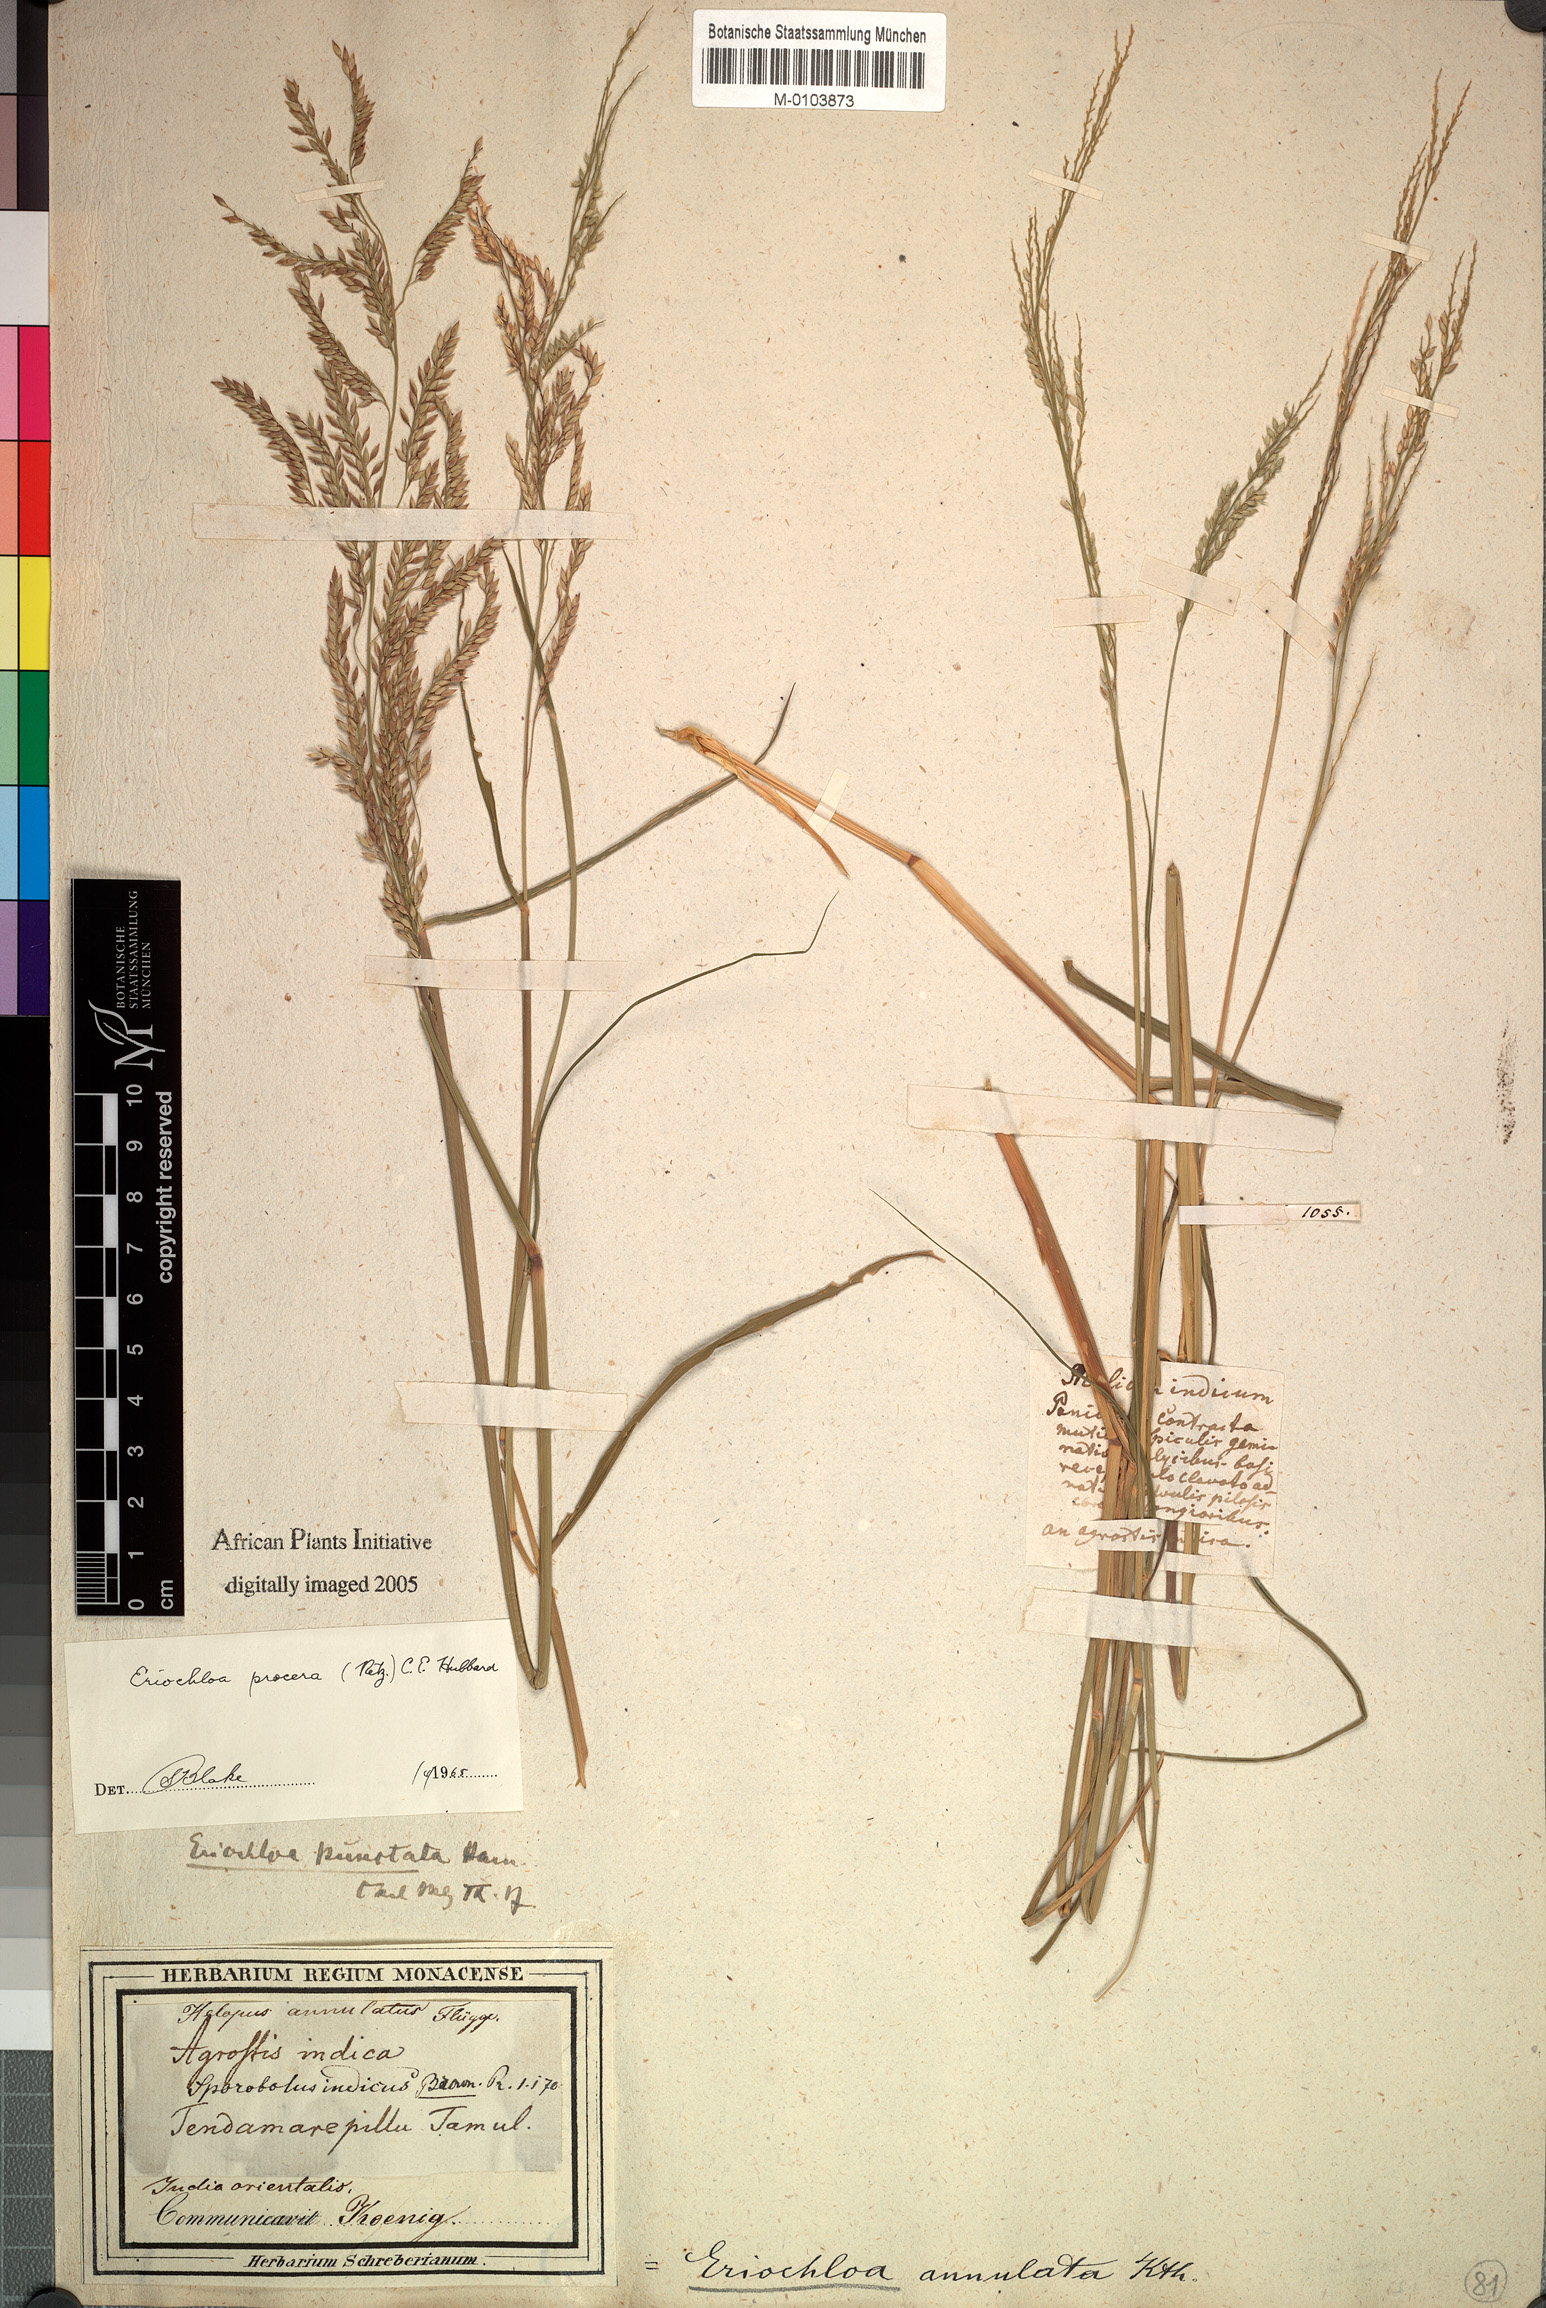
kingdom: Plantae
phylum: Tracheophyta
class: Liliopsida
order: Poales
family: Poaceae
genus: Eriochloa
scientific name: Eriochloa procera
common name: Spring grass
